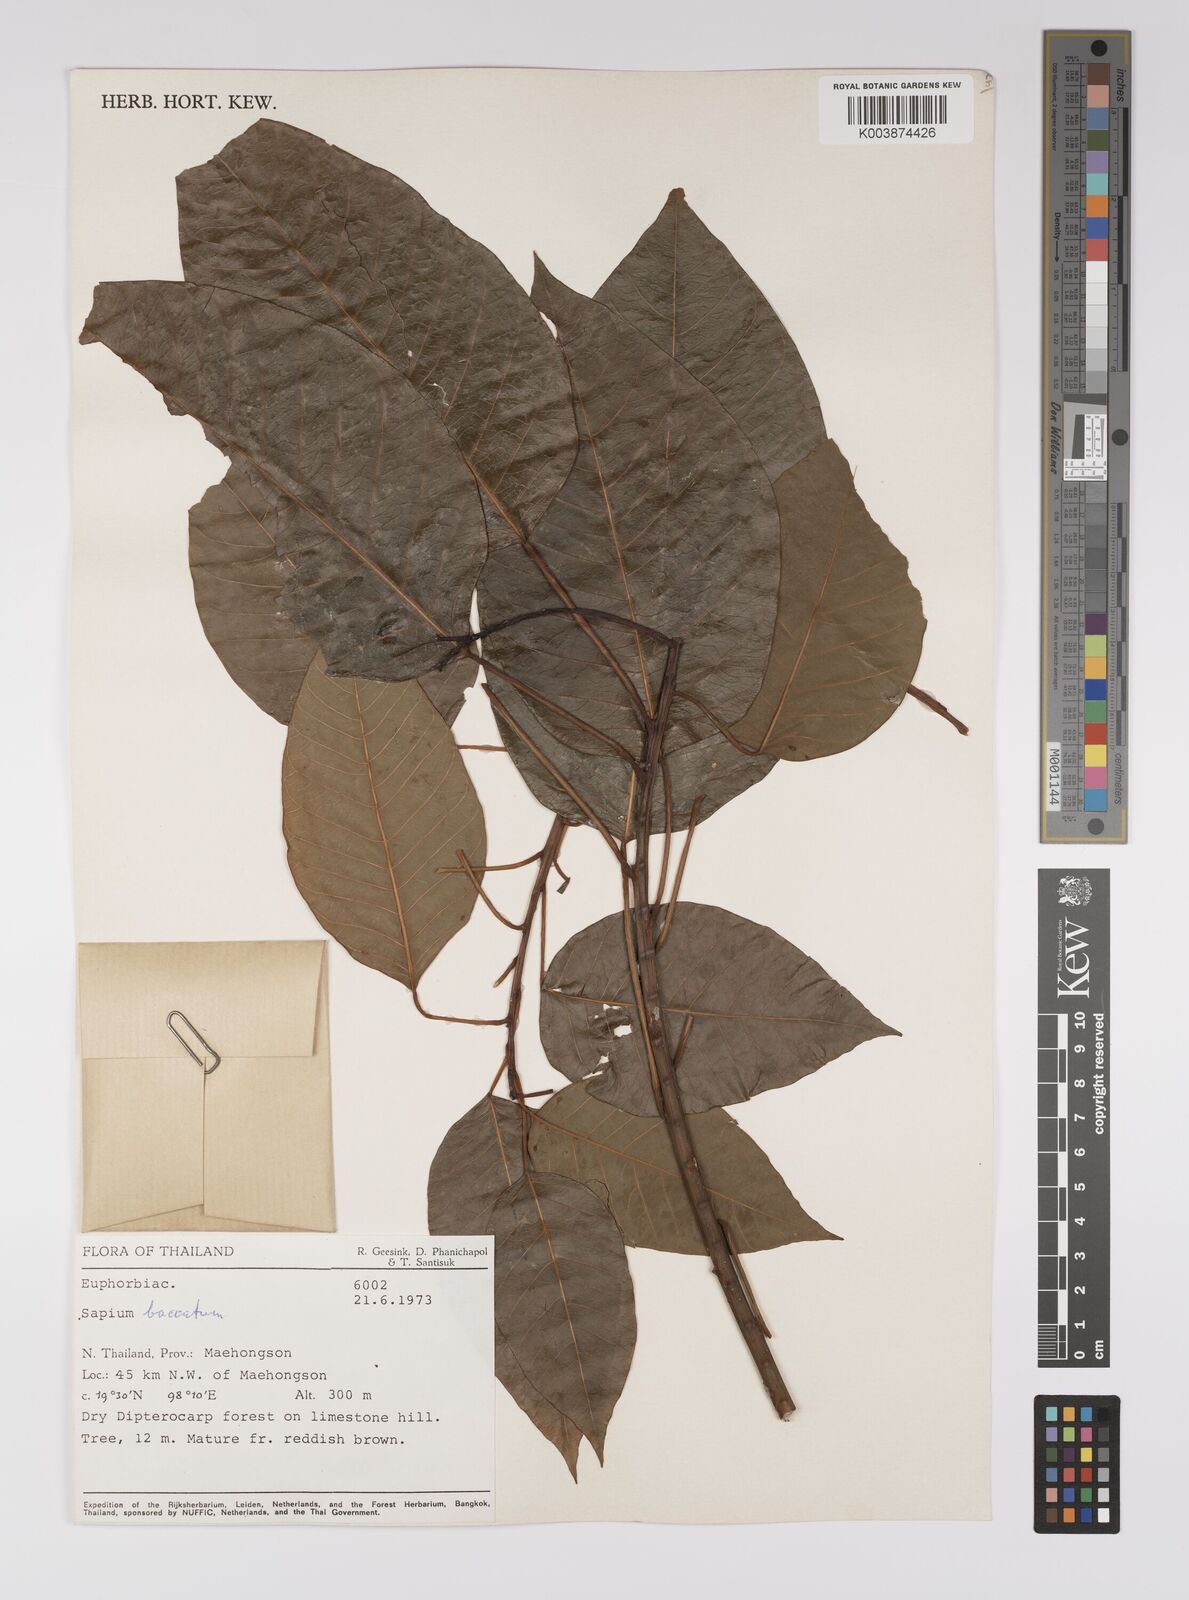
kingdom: Plantae
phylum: Tracheophyta
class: Magnoliopsida
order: Malpighiales
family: Euphorbiaceae
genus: Balakata
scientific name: Balakata baccata
